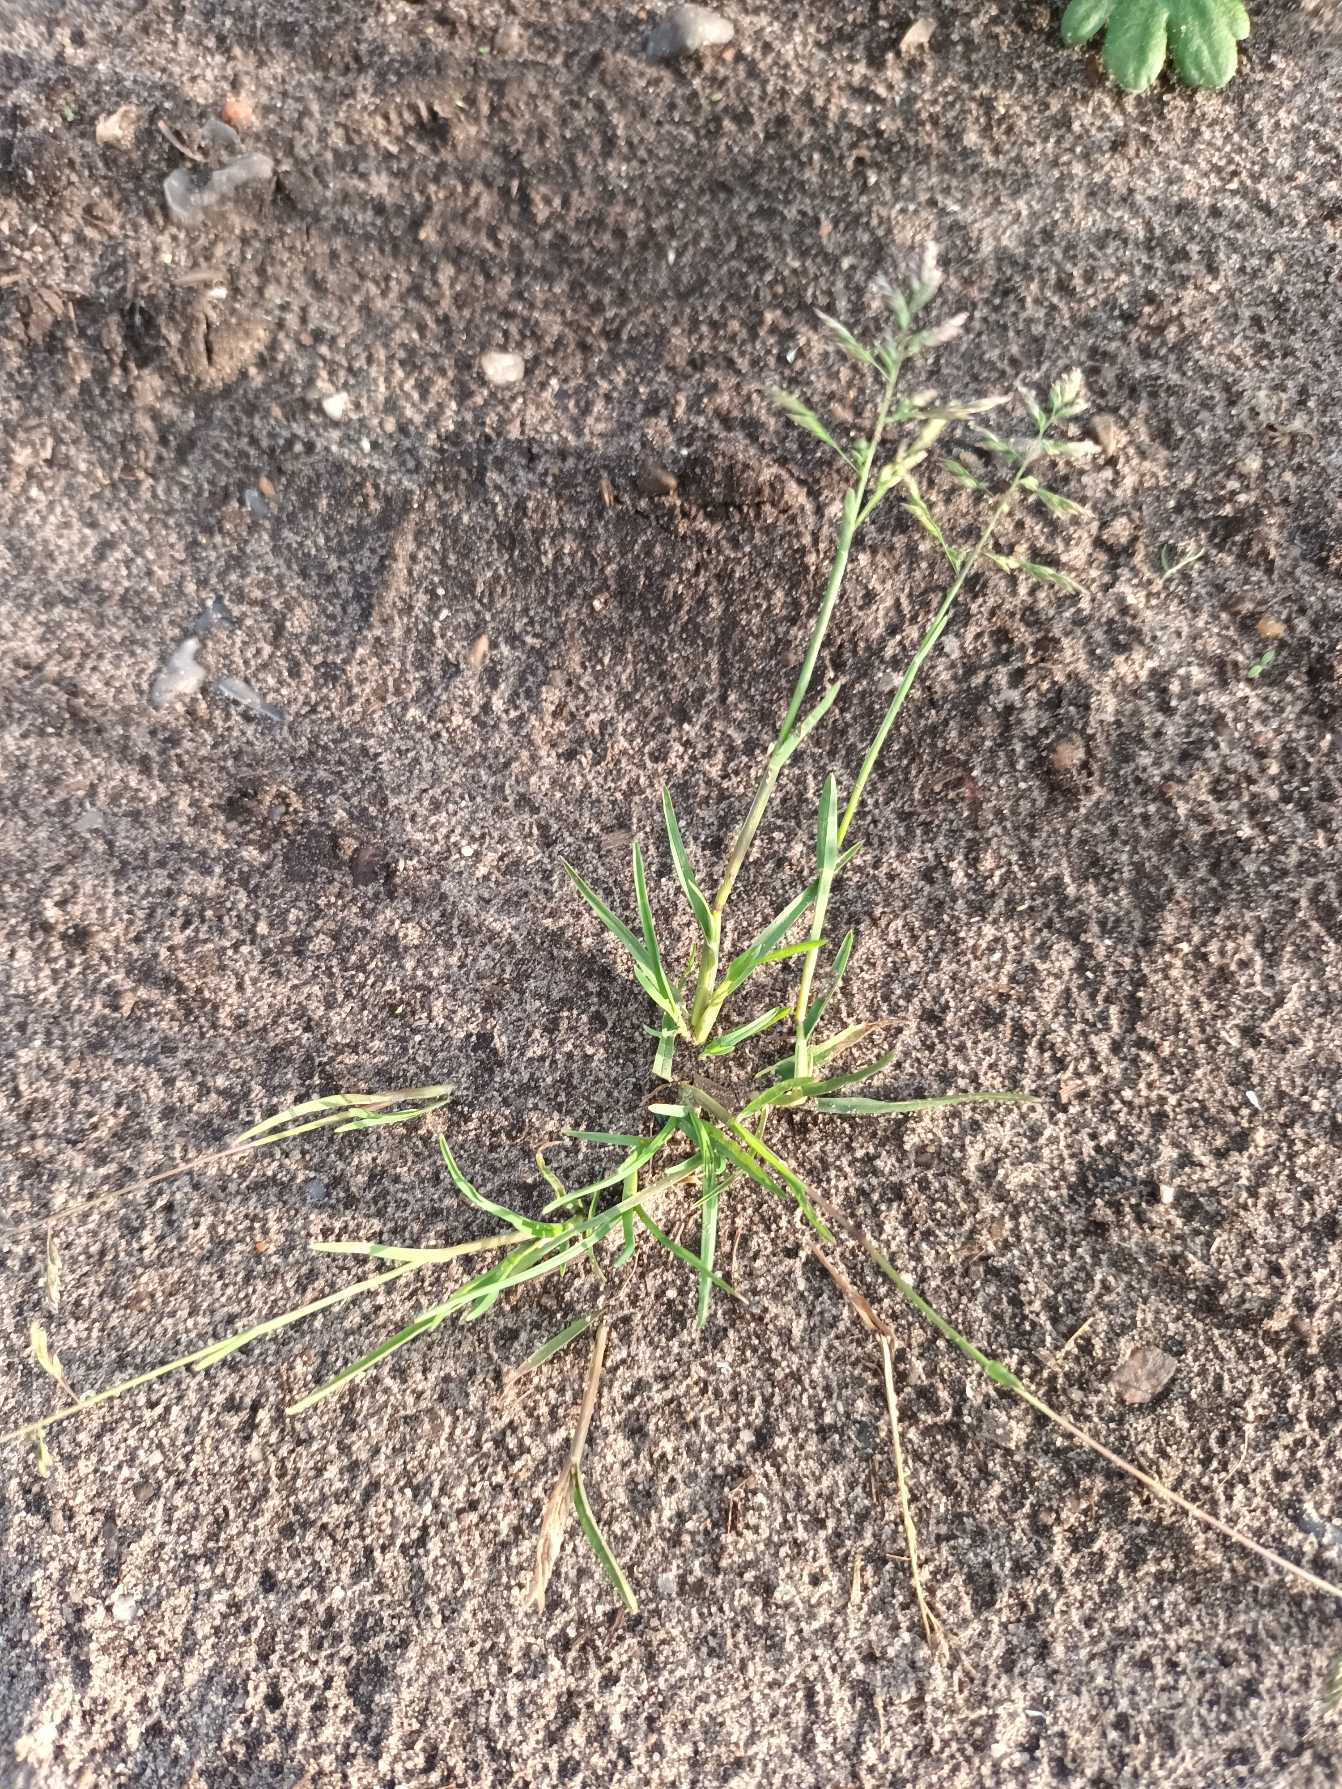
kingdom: Plantae
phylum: Tracheophyta
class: Liliopsida
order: Poales
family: Poaceae
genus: Poa
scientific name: Poa annua
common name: Enårig rapgræs
